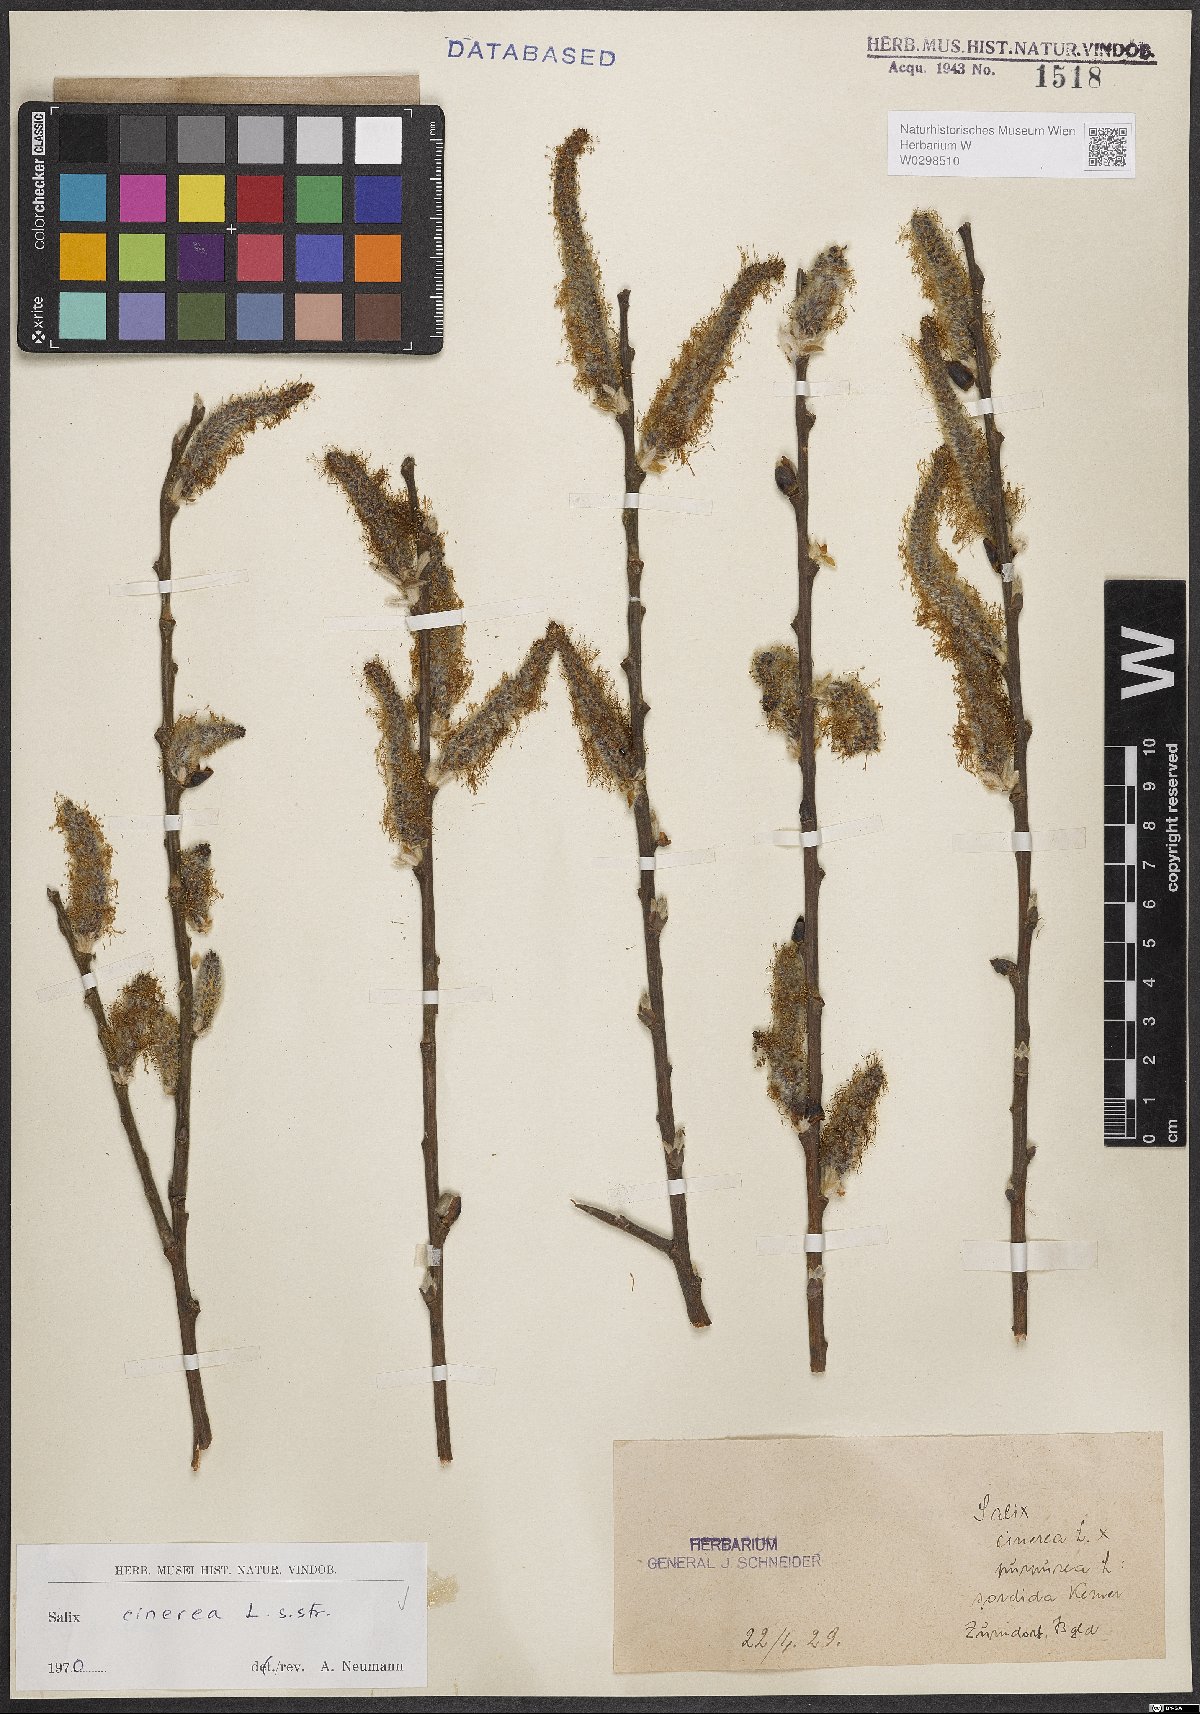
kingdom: Plantae
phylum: Tracheophyta
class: Magnoliopsida
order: Malpighiales
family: Salicaceae
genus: Salix
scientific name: Salix cinerea
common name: Common sallow
